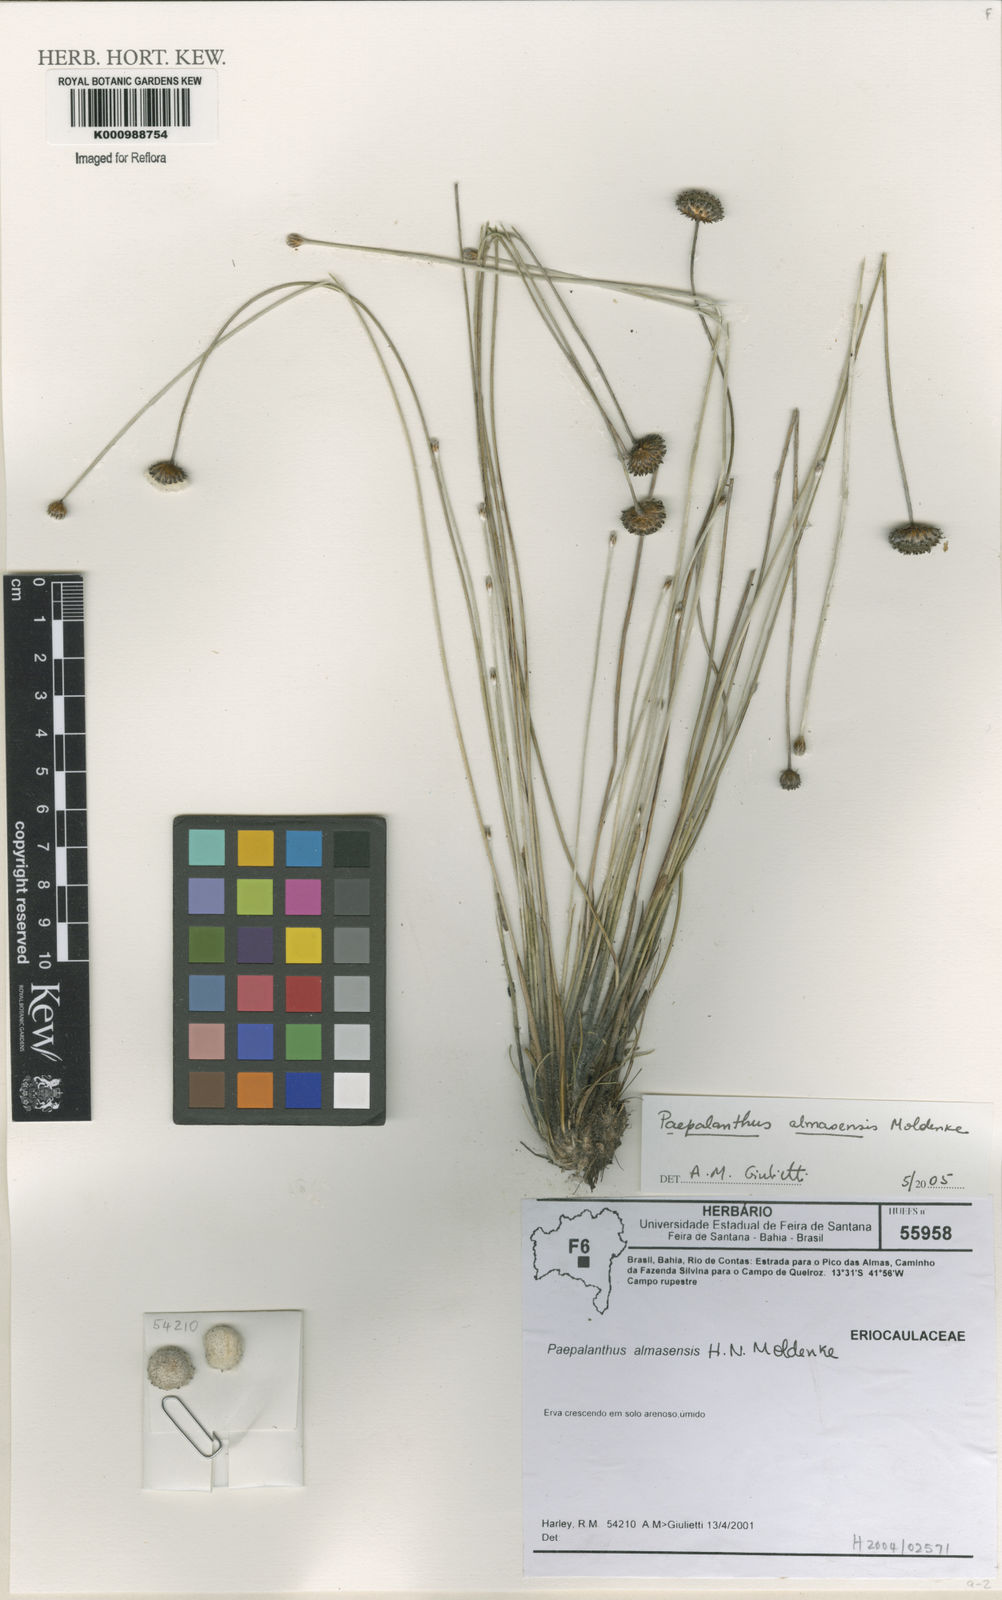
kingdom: Plantae
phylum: Tracheophyta
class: Liliopsida
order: Poales
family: Eriocaulaceae
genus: Paepalanthus
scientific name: Paepalanthus almasensis
